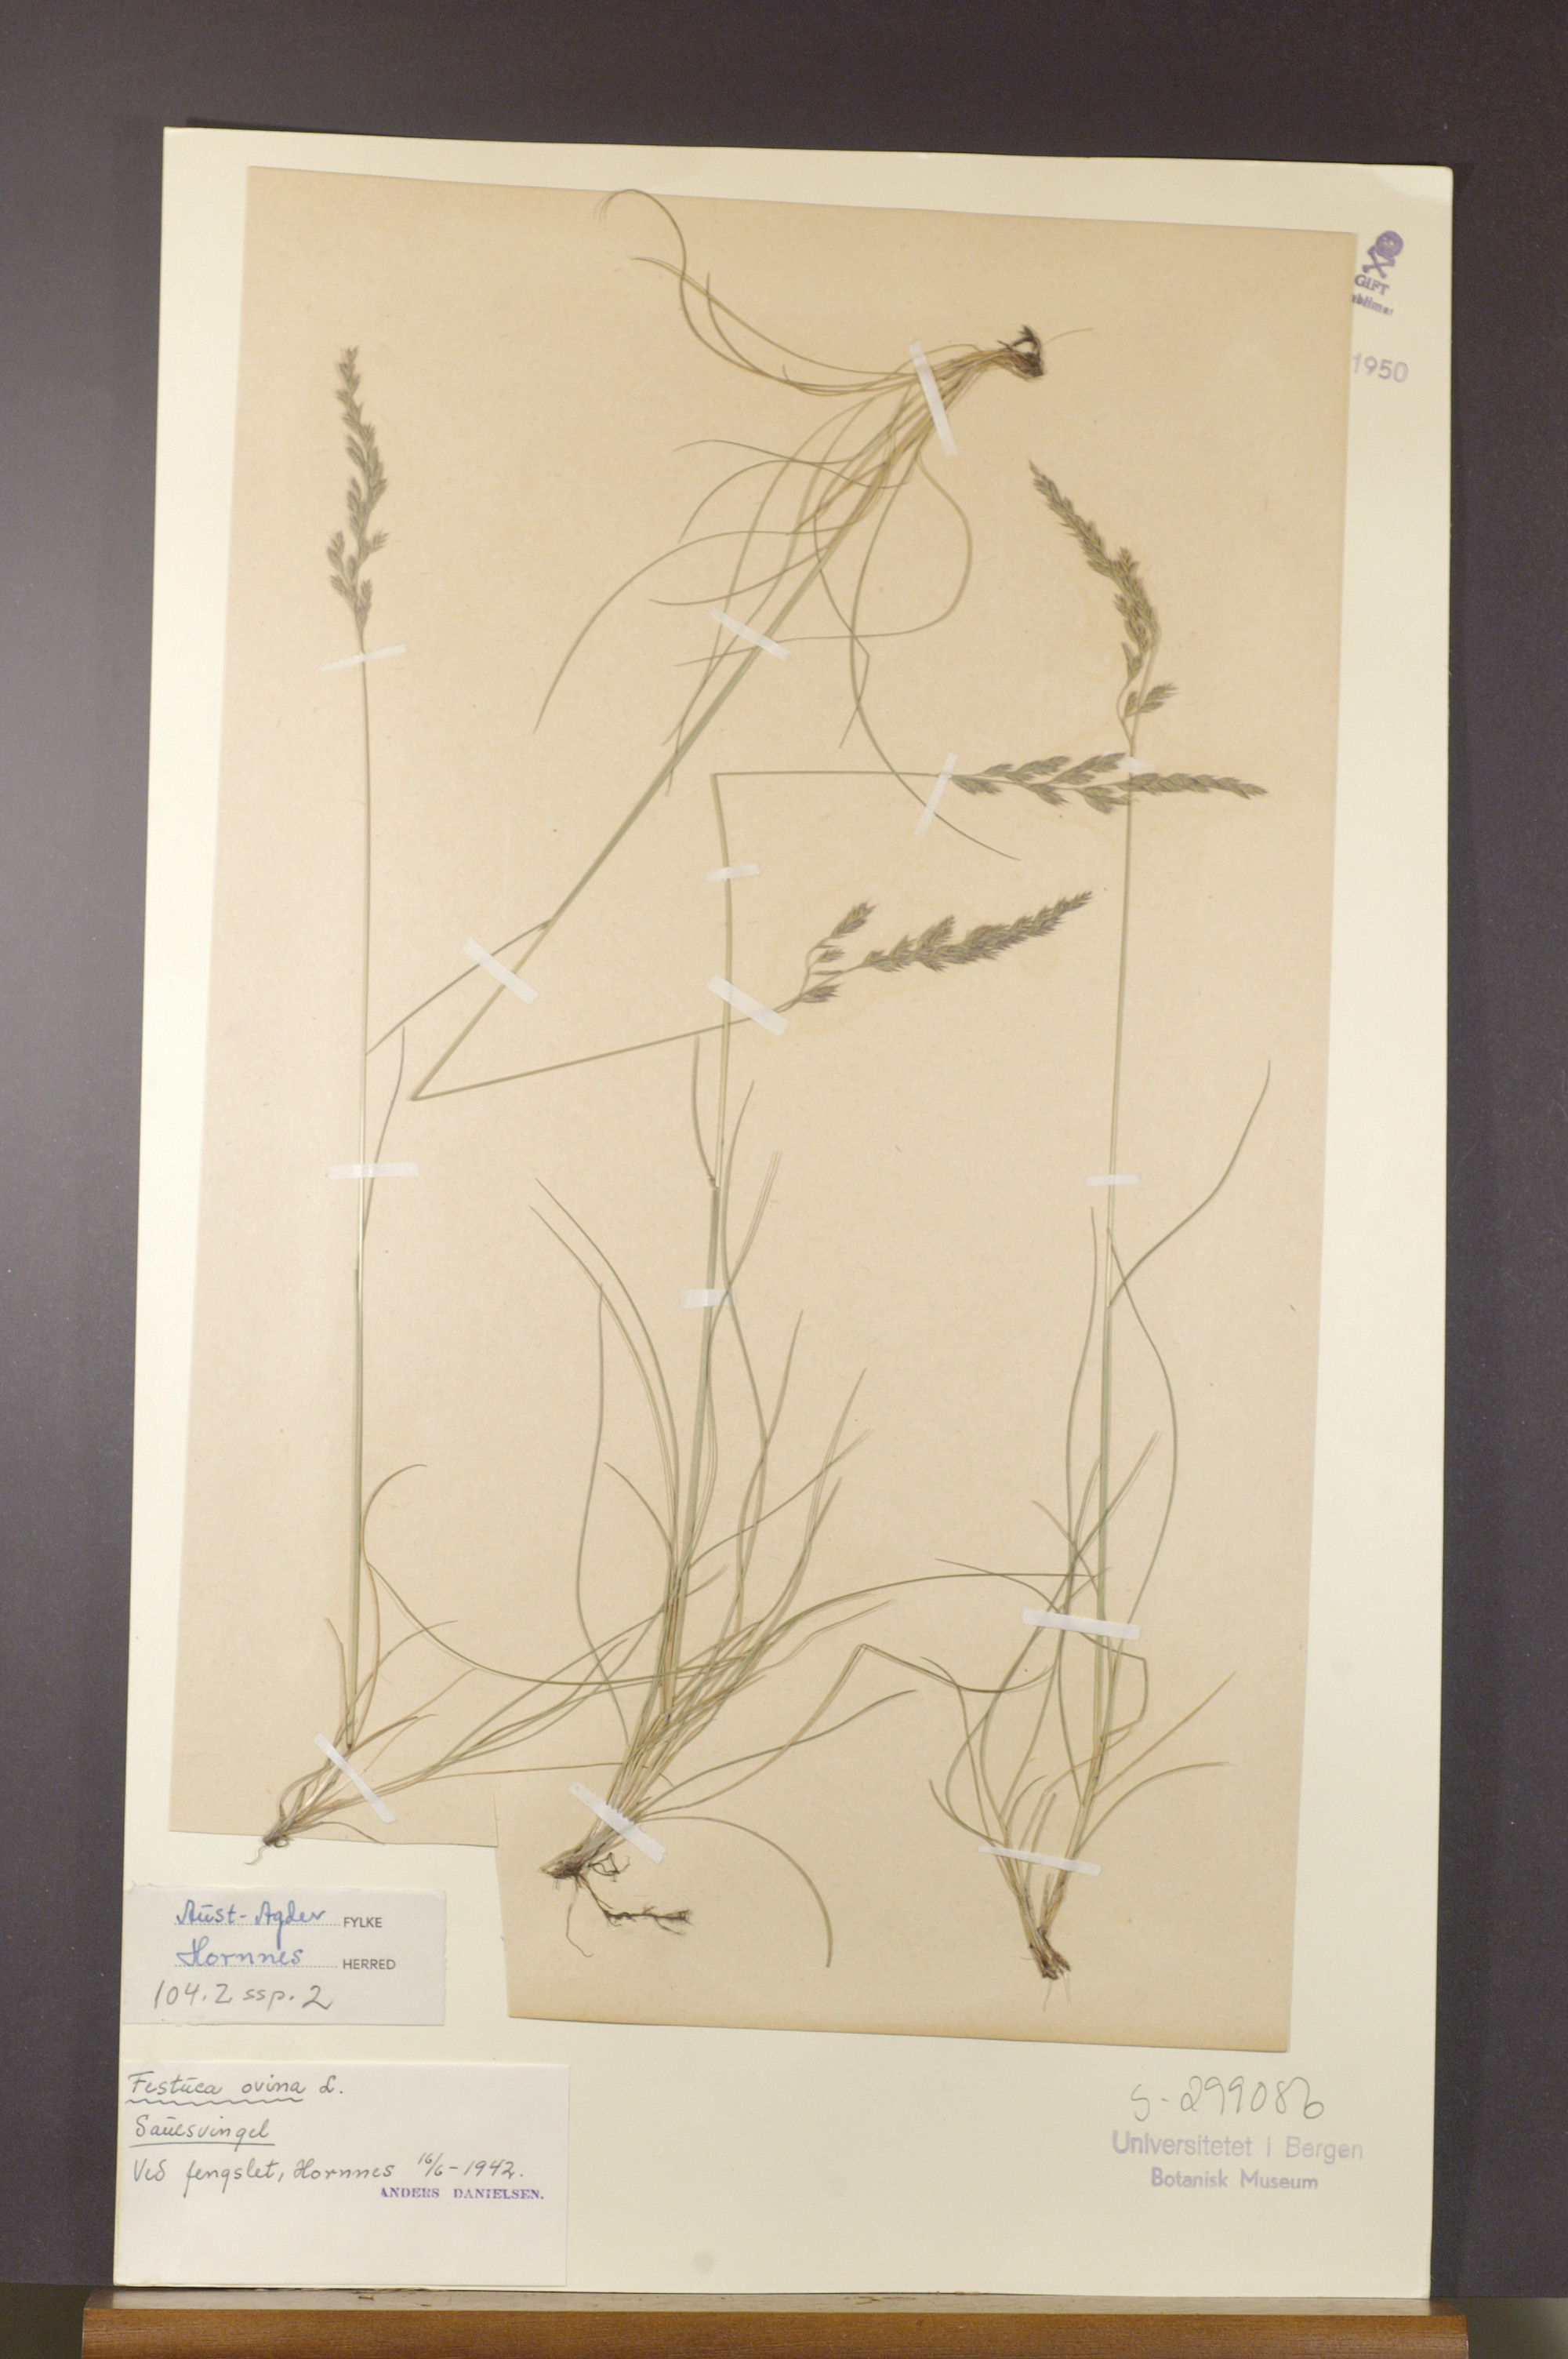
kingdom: Plantae
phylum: Tracheophyta
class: Liliopsida
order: Poales
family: Poaceae
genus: Festuca
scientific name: Festuca ovina
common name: Sheep fescue
